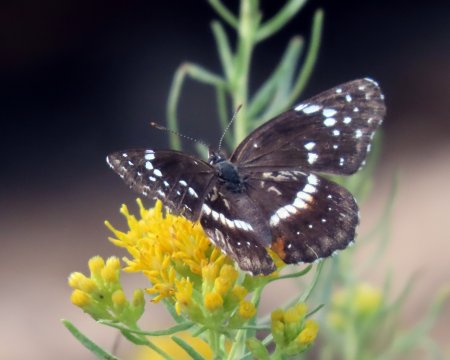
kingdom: Animalia
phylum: Arthropoda
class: Insecta
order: Lepidoptera
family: Nymphalidae
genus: Chlosyne
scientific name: Chlosyne lacinia
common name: Bordered Patch
